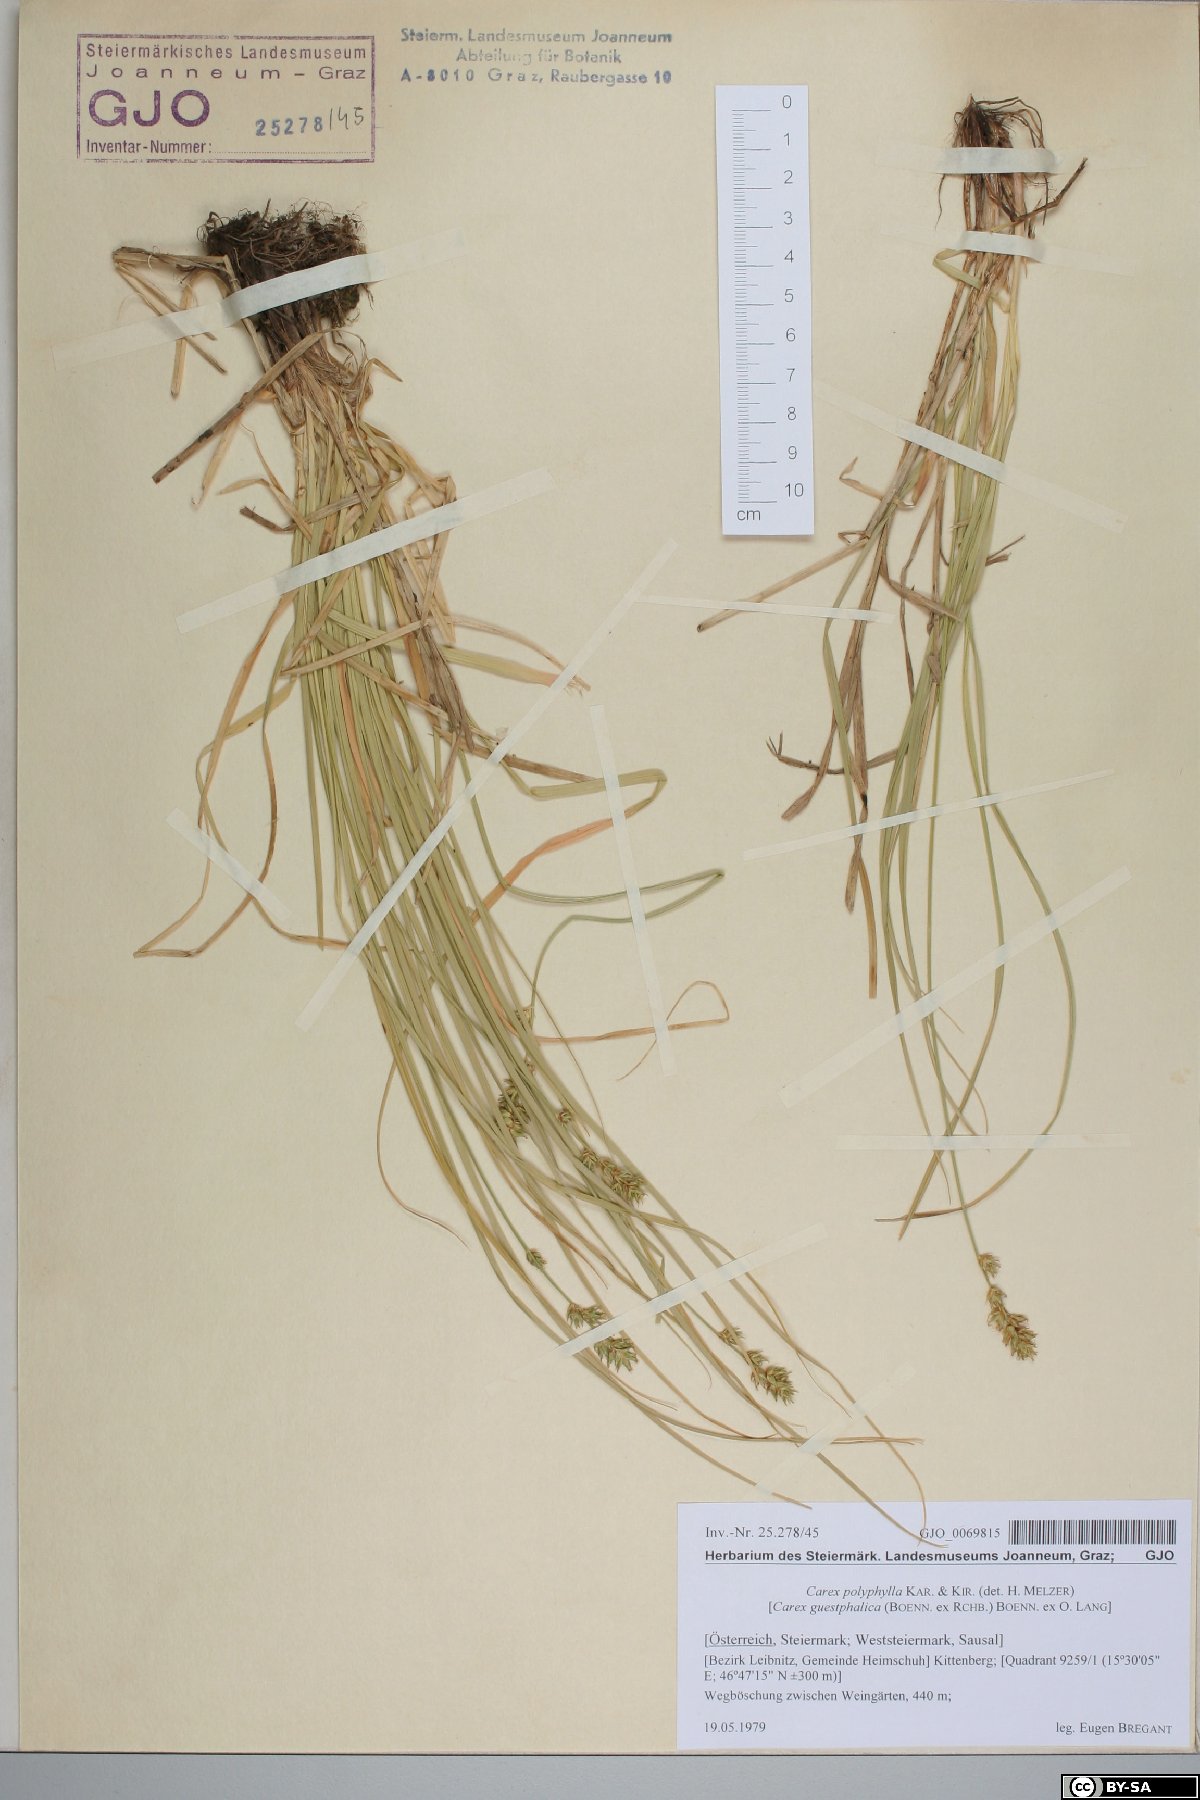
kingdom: Plantae
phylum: Tracheophyta
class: Liliopsida
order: Poales
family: Cyperaceae
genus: Carex
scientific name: Carex polyphylla
